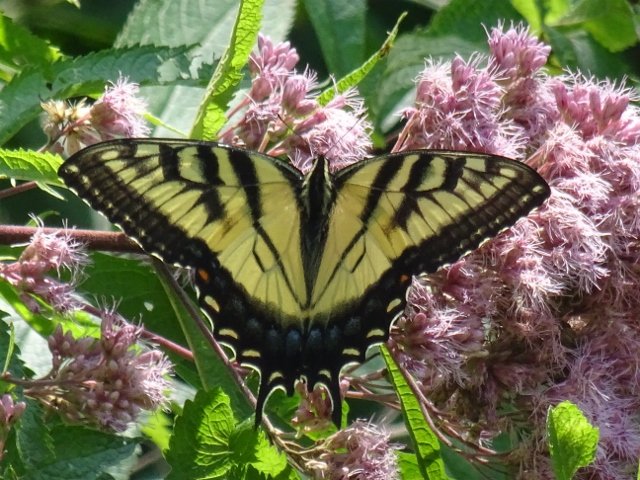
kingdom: Animalia
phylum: Arthropoda
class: Insecta
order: Lepidoptera
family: Papilionidae
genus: Pterourus
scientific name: Pterourus glaucus
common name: Eastern Tiger Swallowtail
